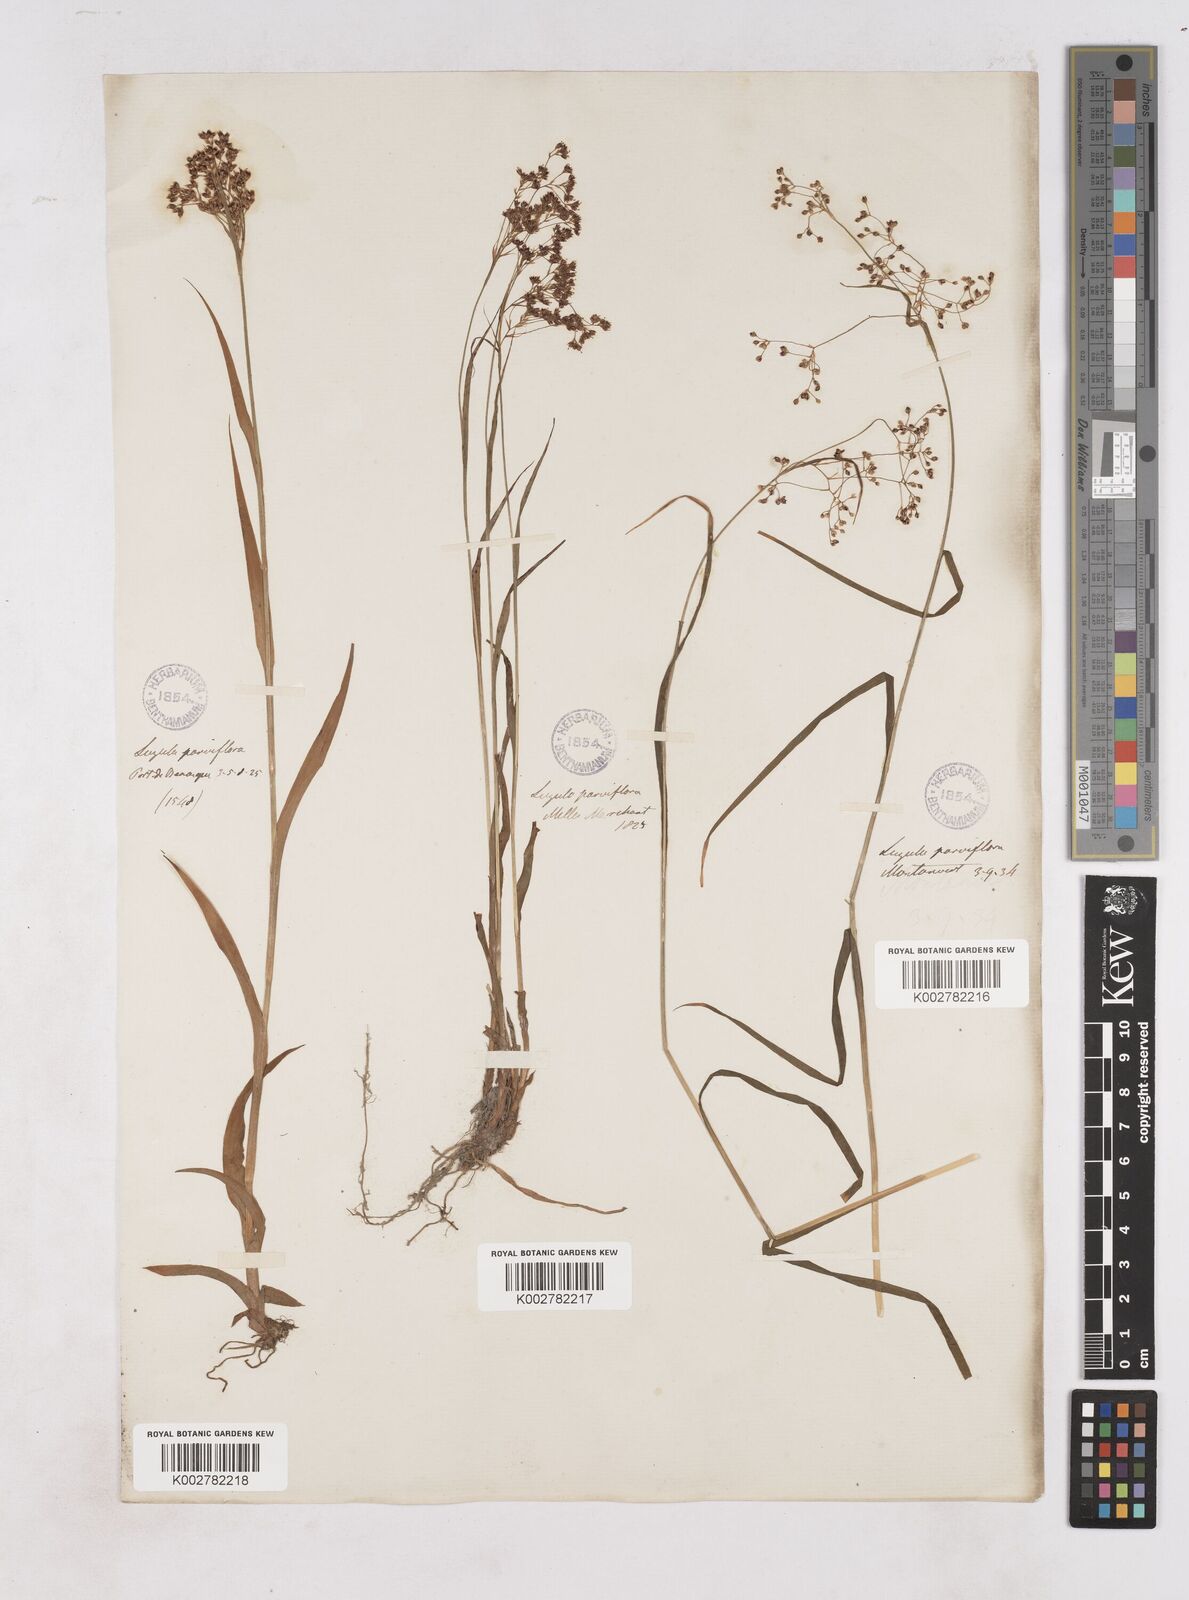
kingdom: Plantae
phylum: Tracheophyta
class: Liliopsida
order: Poales
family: Juncaceae
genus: Luzula
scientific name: Luzula parviflora
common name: Millet woodrush
